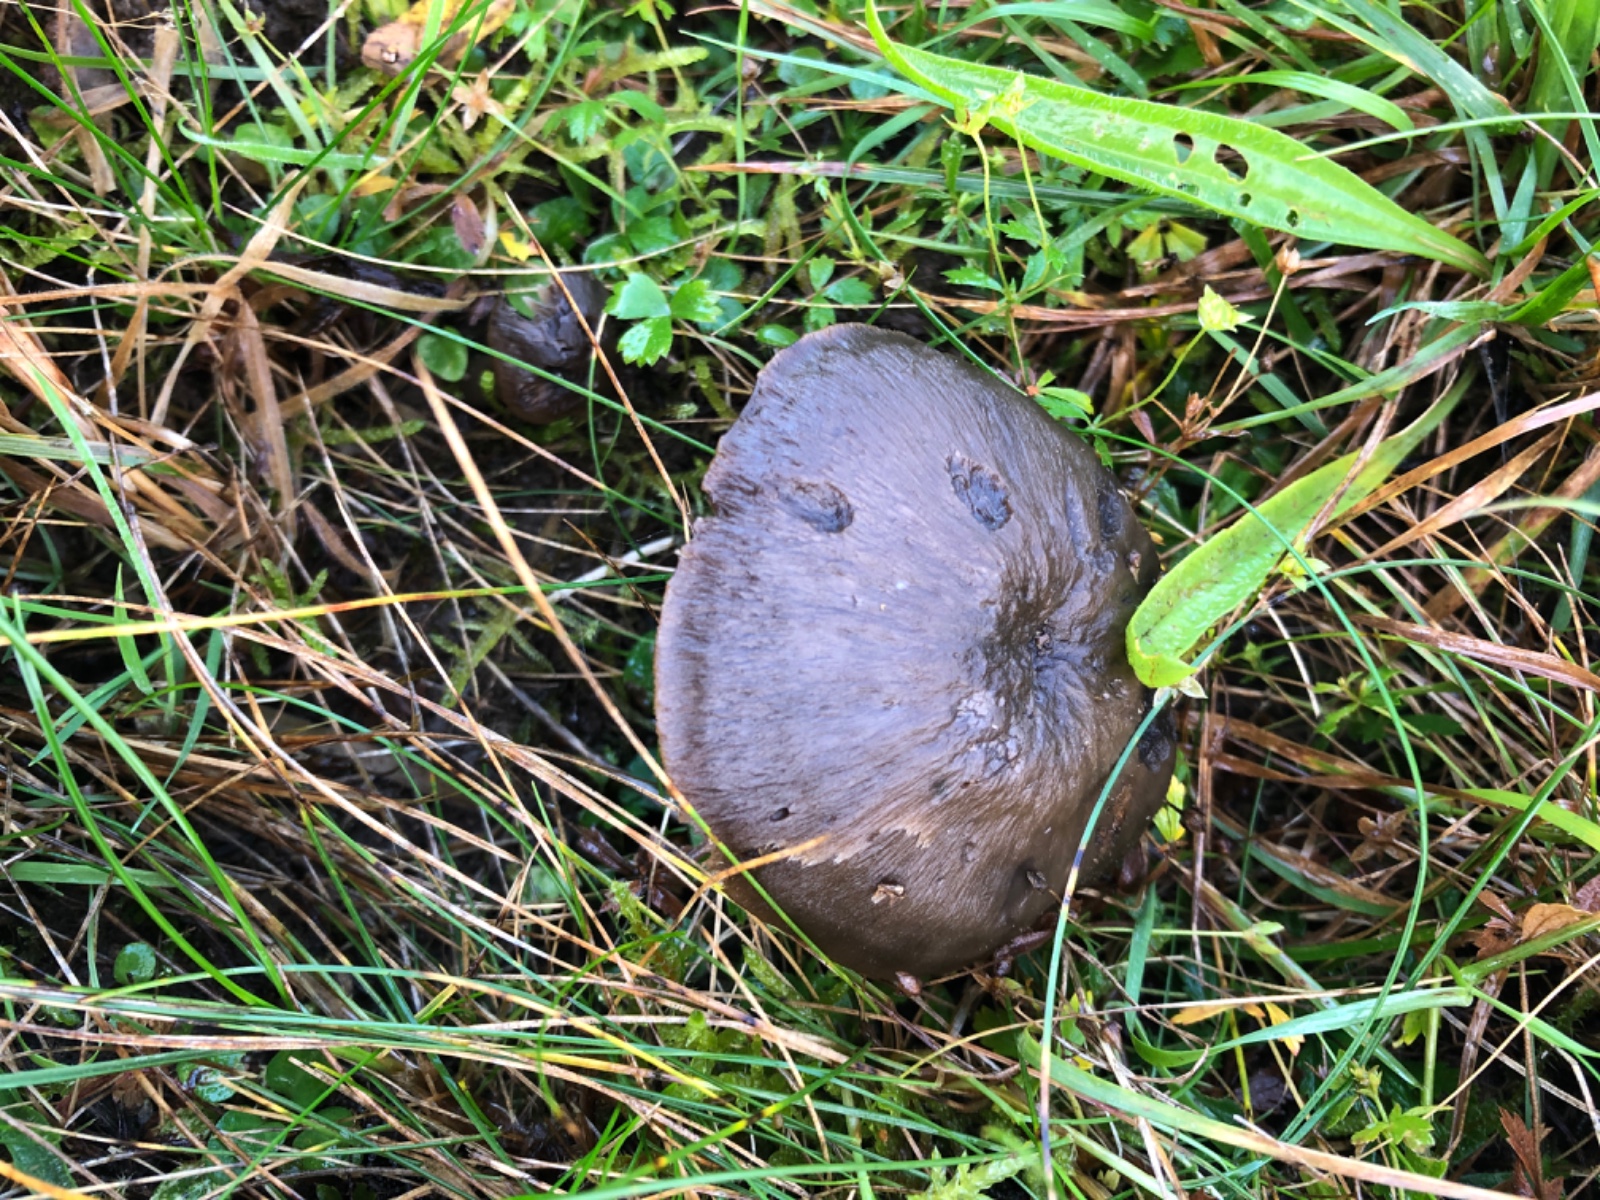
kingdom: Fungi
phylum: Basidiomycota
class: Agaricomycetes
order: Agaricales
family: Hygrophoraceae
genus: Neohygrocybe
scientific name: Neohygrocybe ovina
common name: rødmende vokshat
